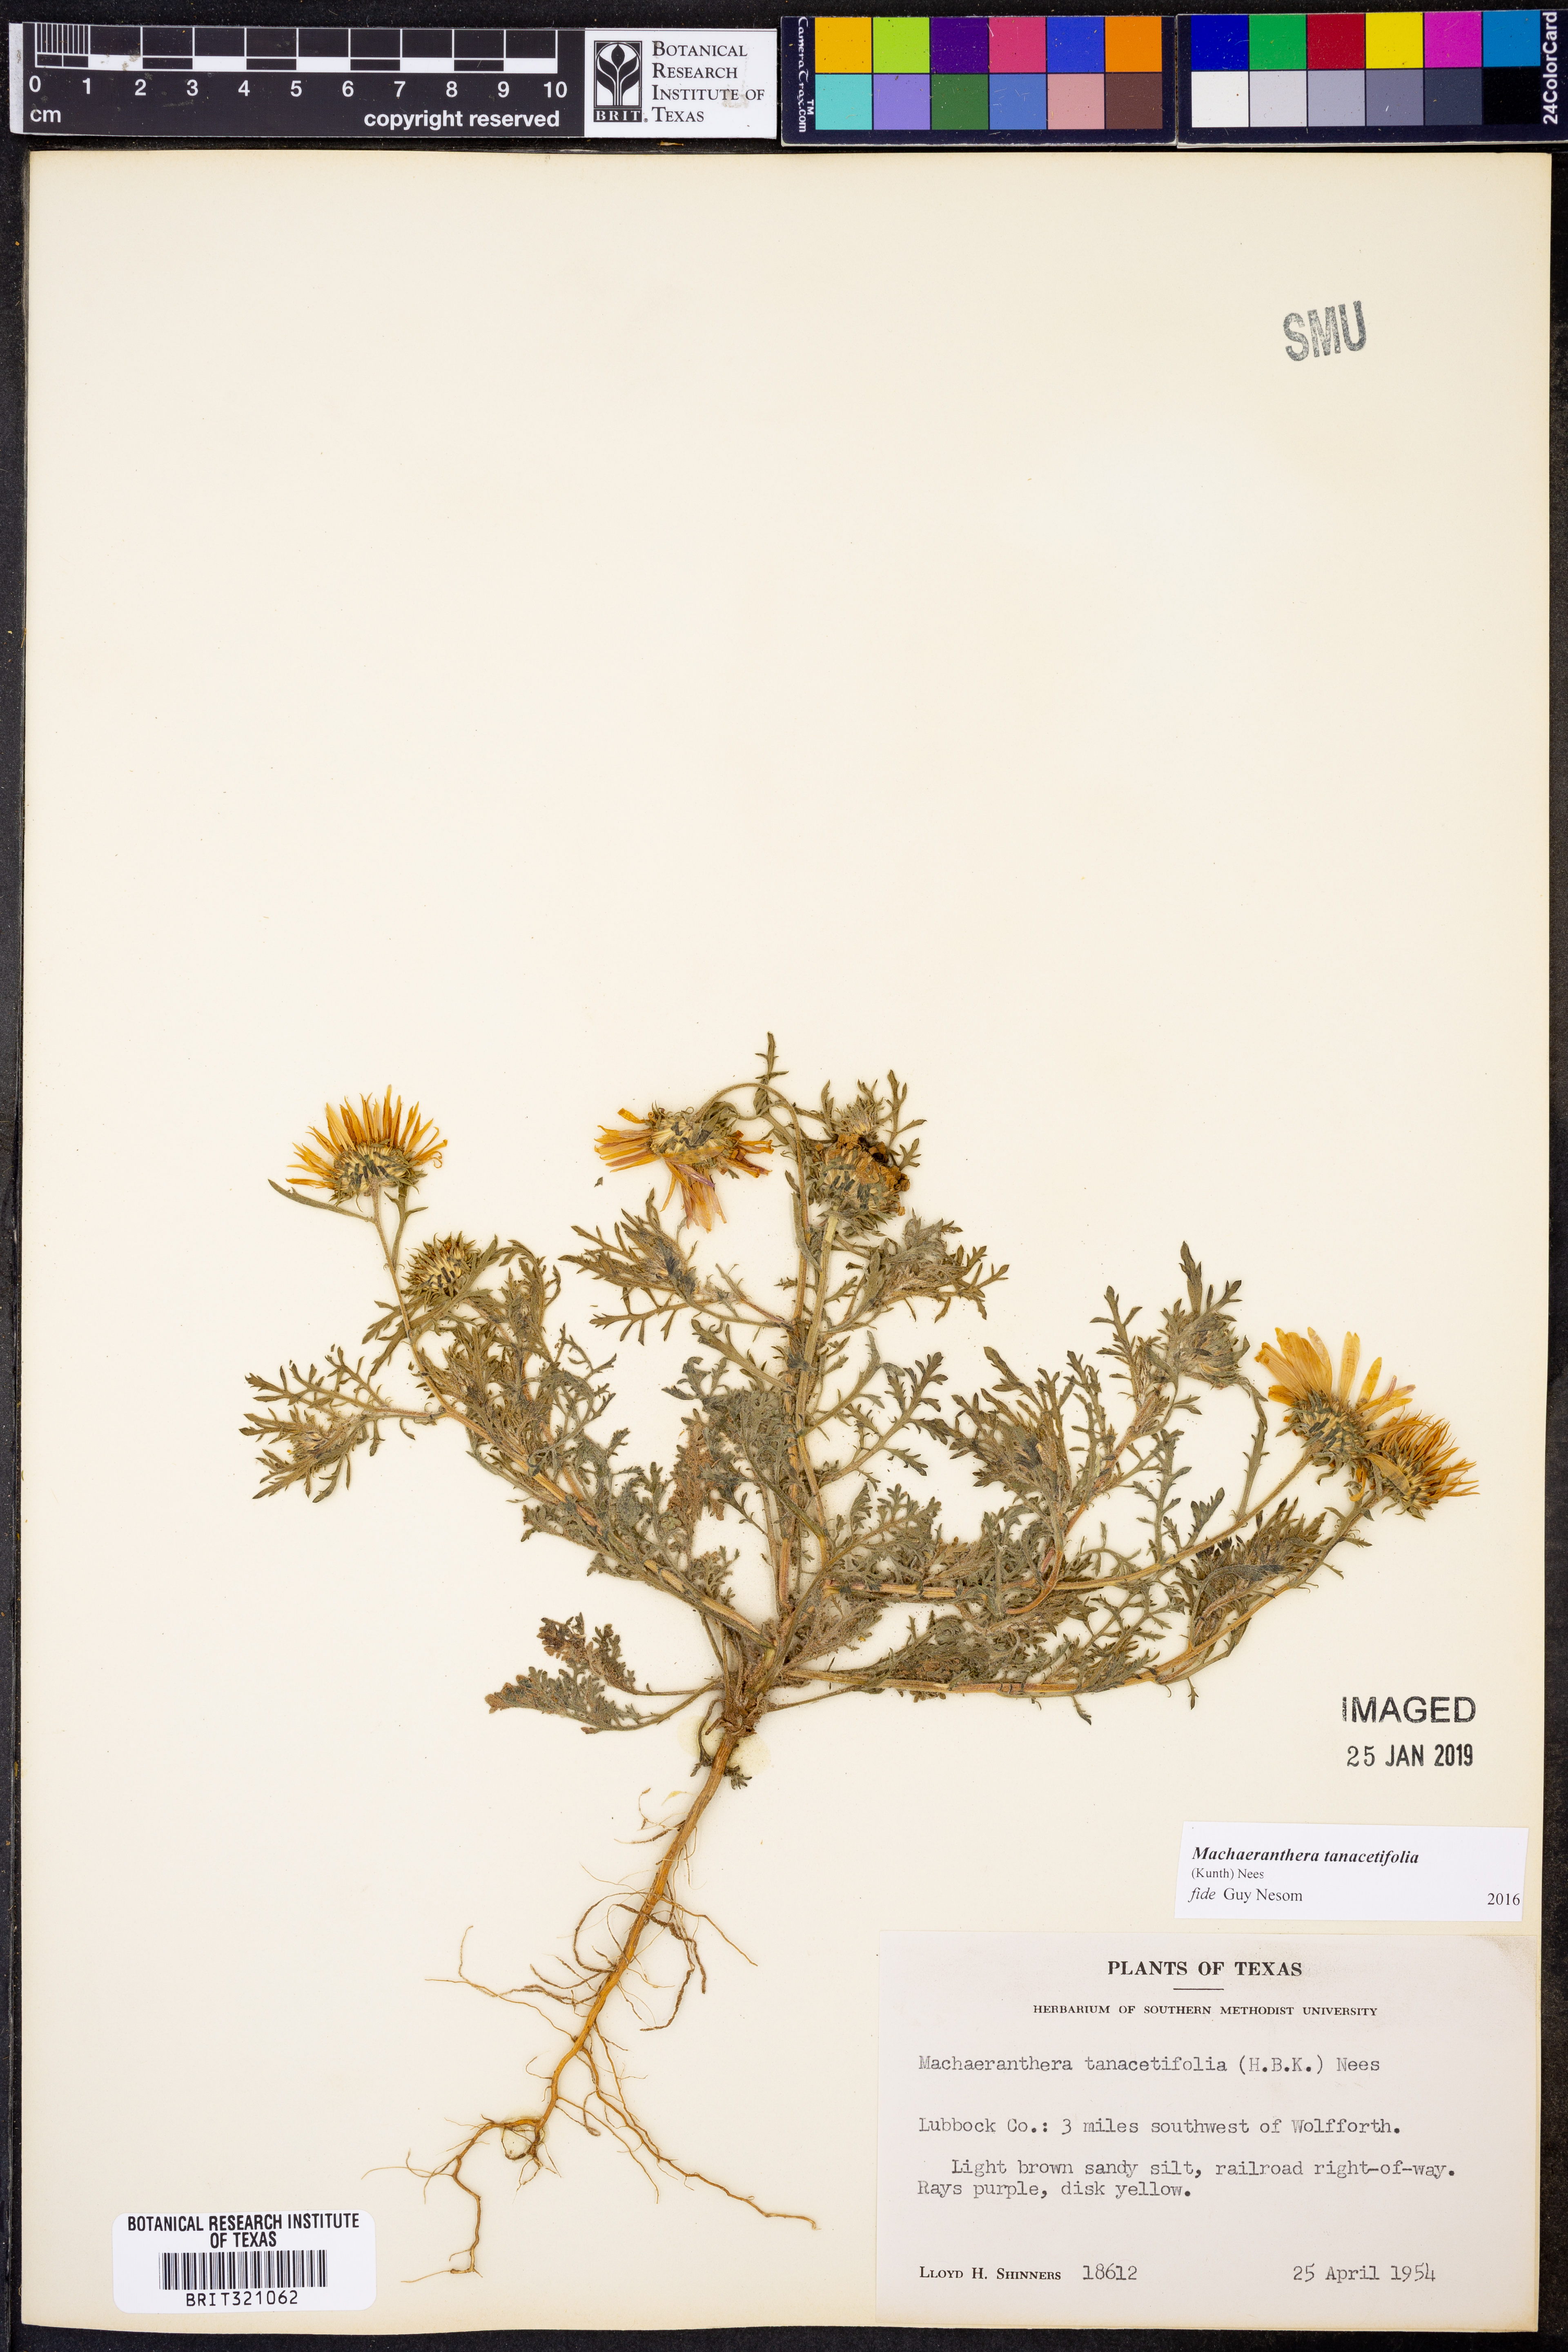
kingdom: Plantae
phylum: Tracheophyta
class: Magnoliopsida
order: Asterales
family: Asteraceae
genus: Machaeranthera
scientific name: Machaeranthera tanacetifolia
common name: Tansy-aster
